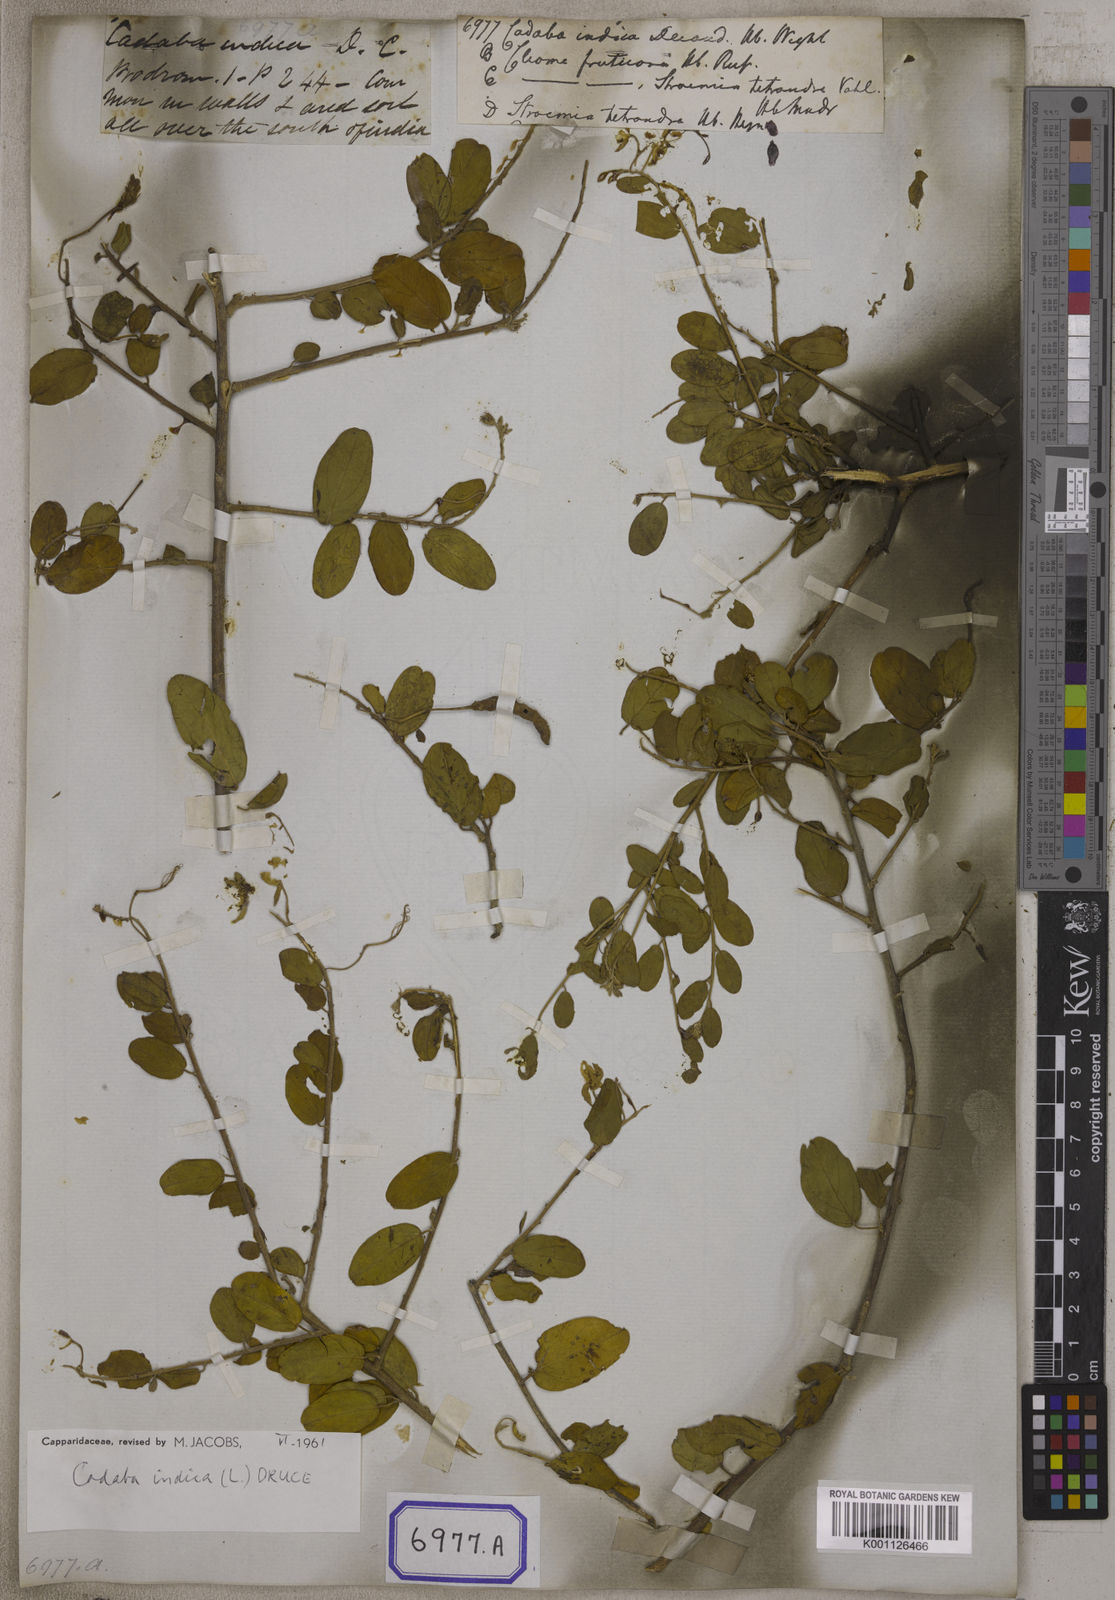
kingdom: Plantae
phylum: Tracheophyta
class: Magnoliopsida
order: Brassicales
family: Capparaceae
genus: Cadaba
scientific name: Cadaba fruticosa
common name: Indian cadaba
